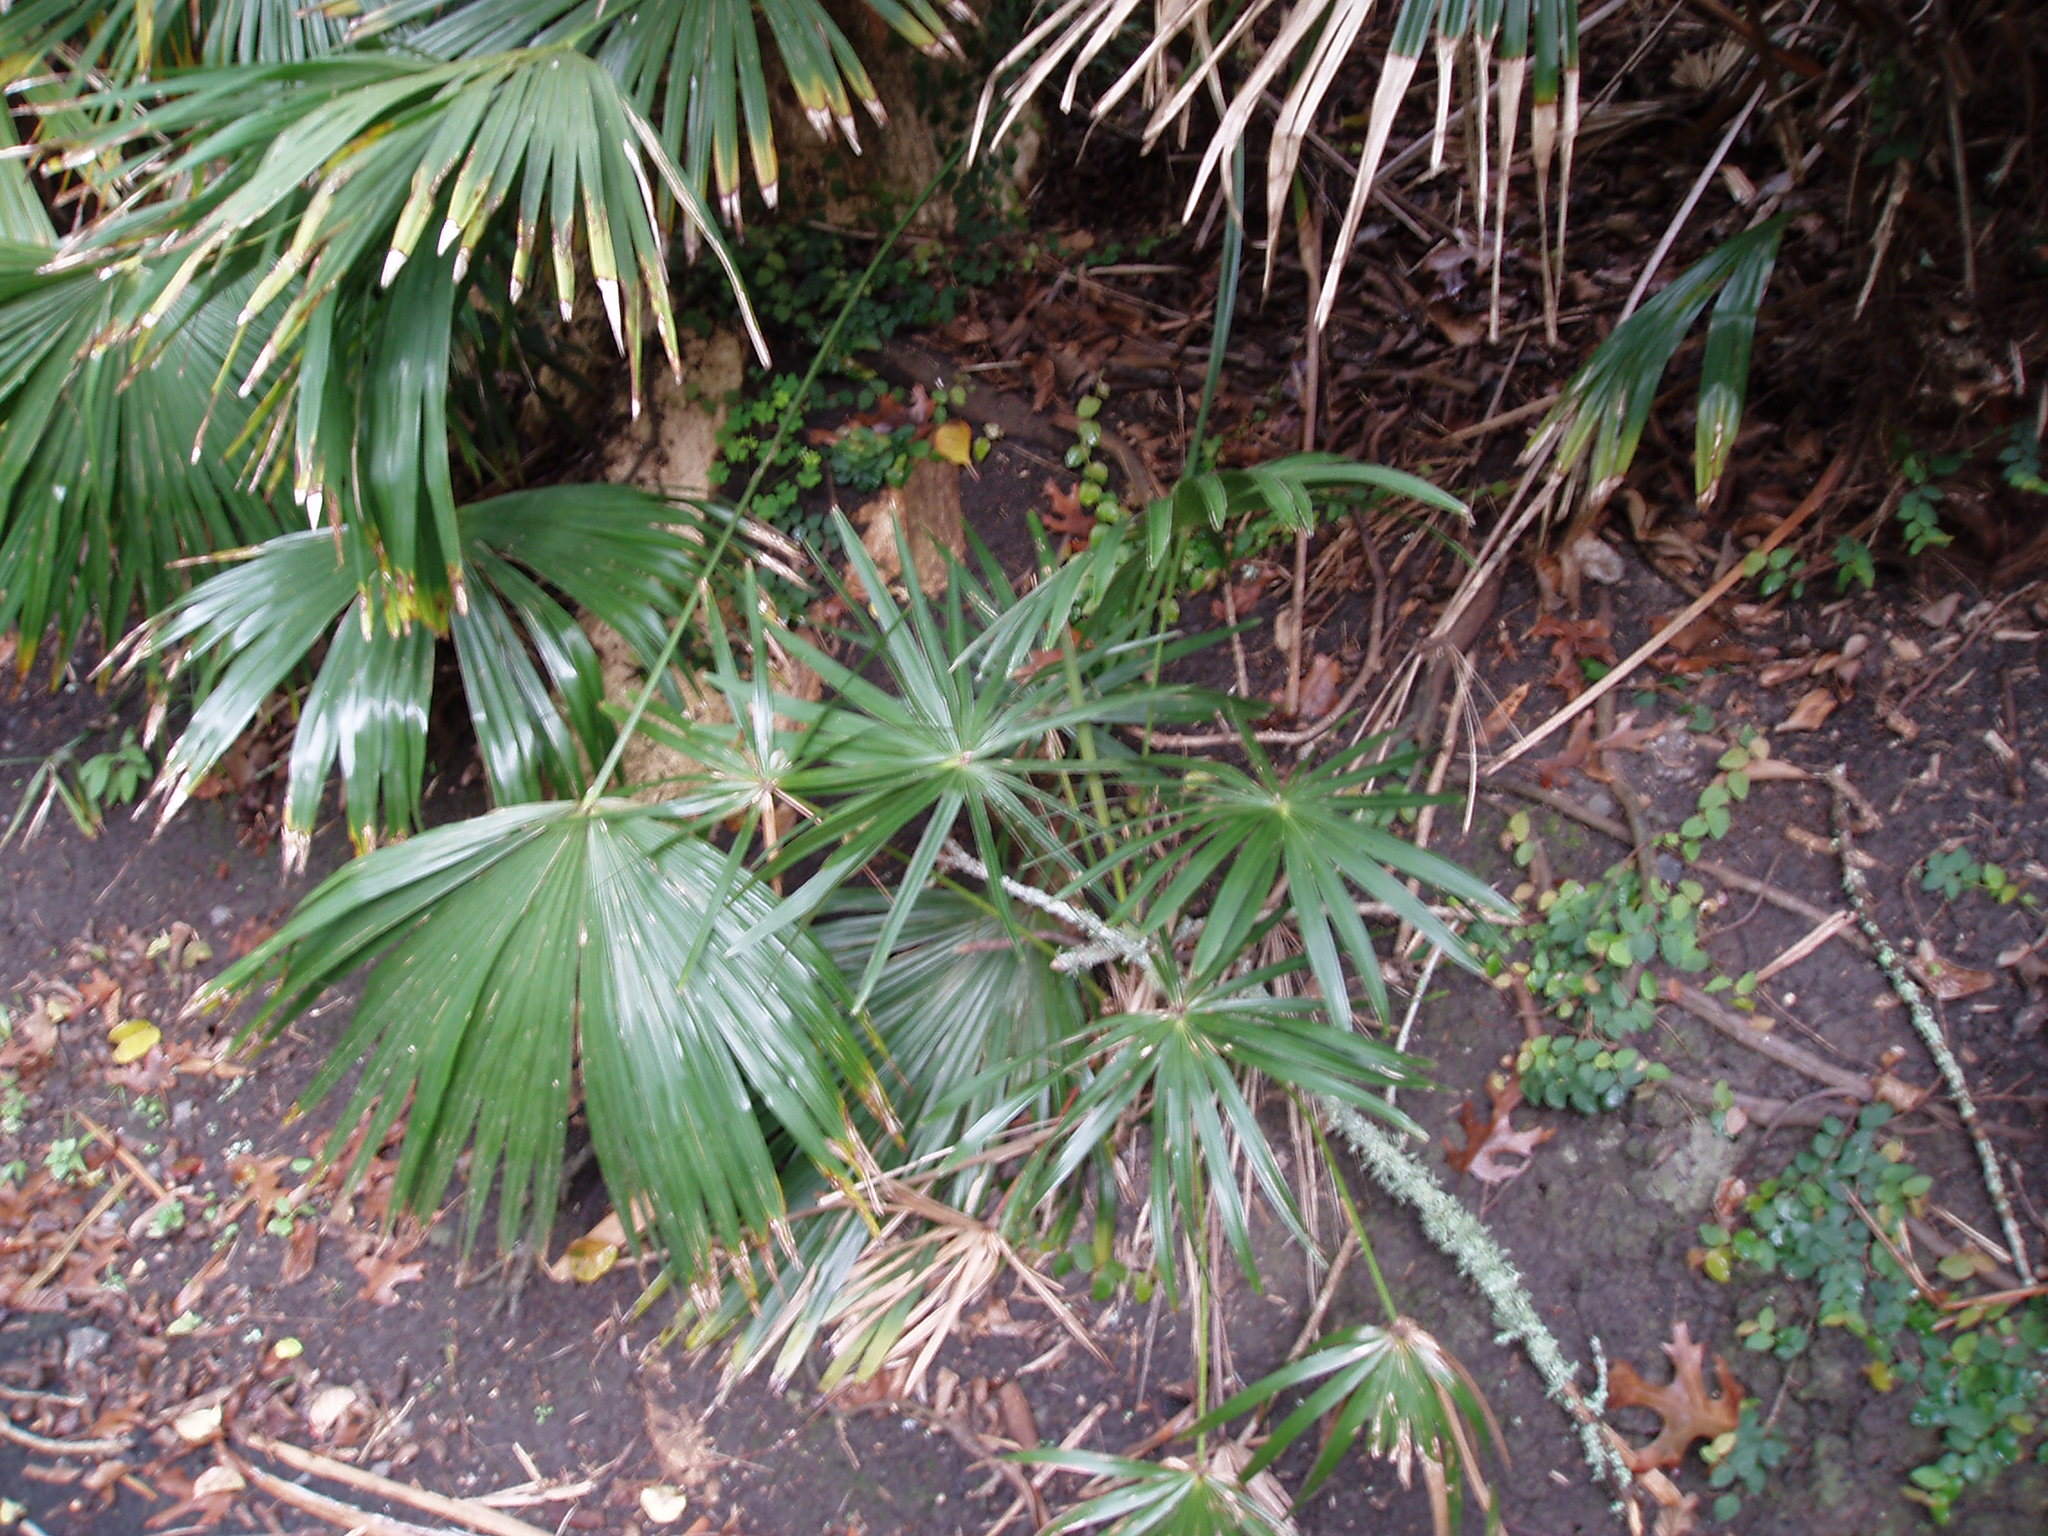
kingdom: Plantae
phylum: Tracheophyta
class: Liliopsida
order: Arecales
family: Arecaceae
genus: Livistona
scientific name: Livistona australis
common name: Cabbage fan palm
